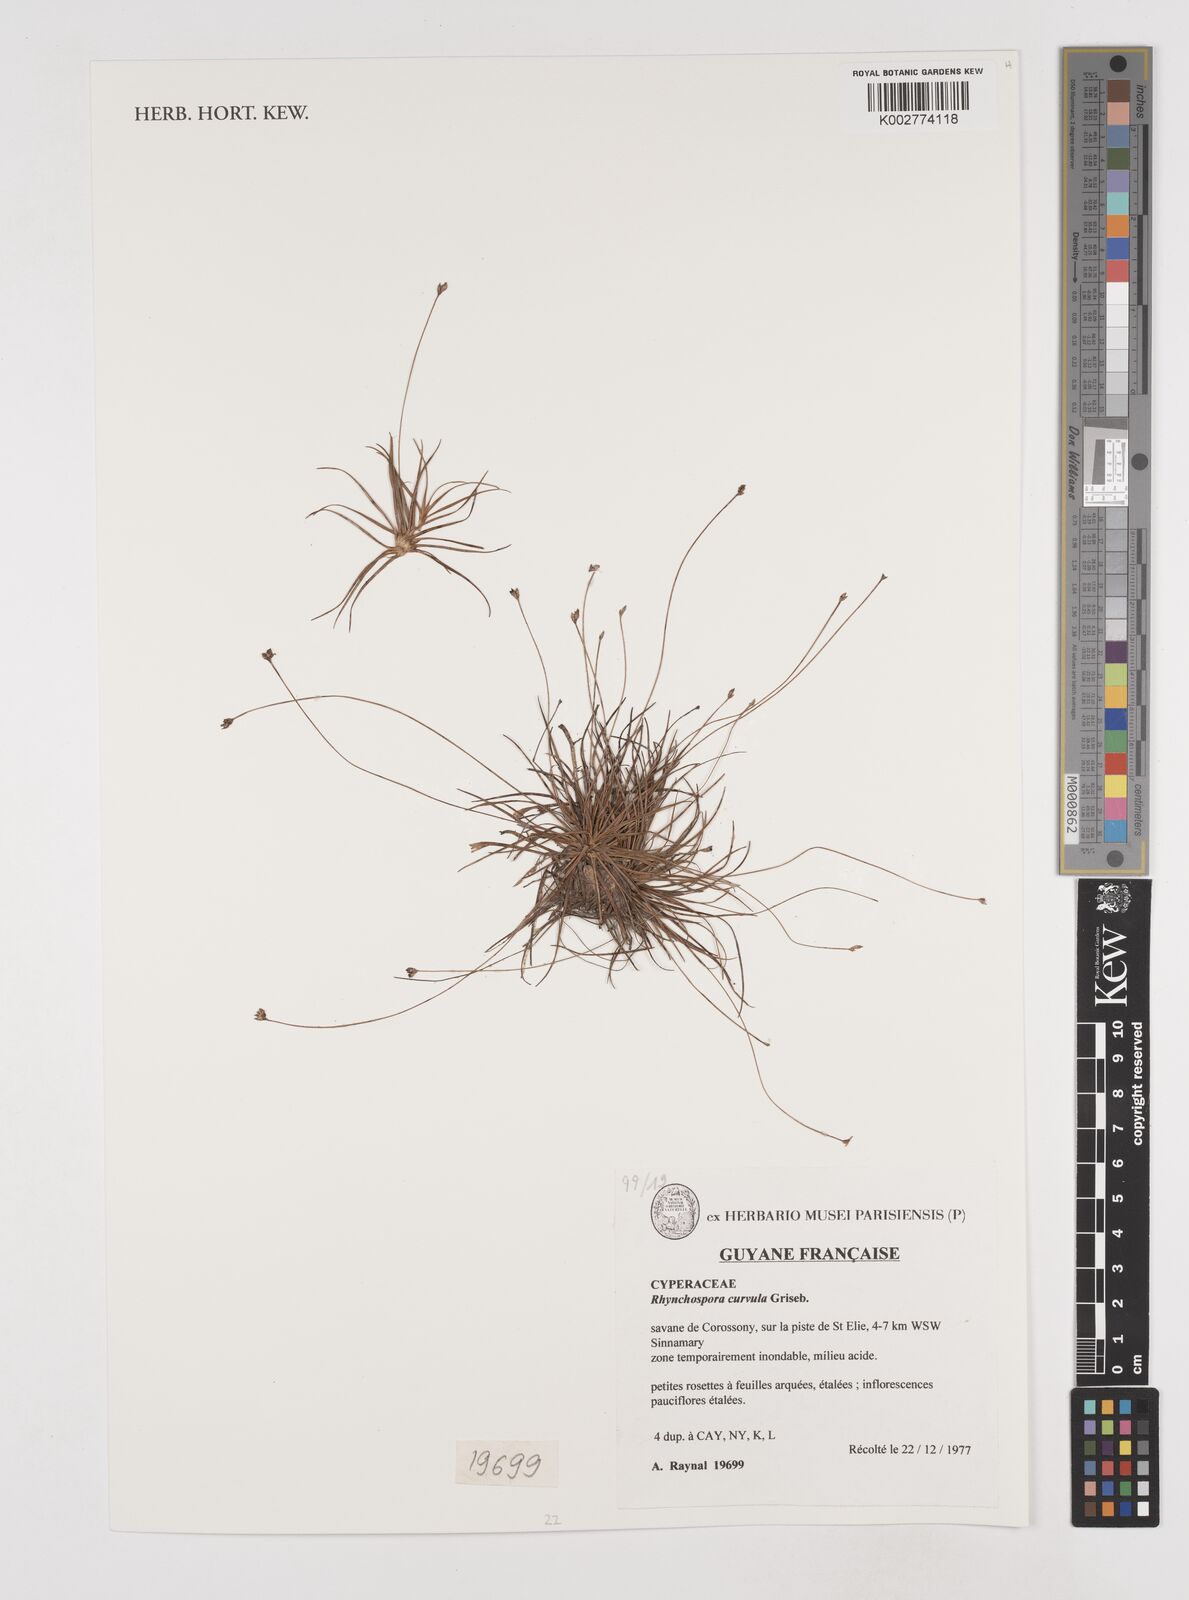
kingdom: Plantae
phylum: Tracheophyta
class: Liliopsida
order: Poales
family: Cyperaceae
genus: Rhynchospora
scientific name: Rhynchospora curvula
